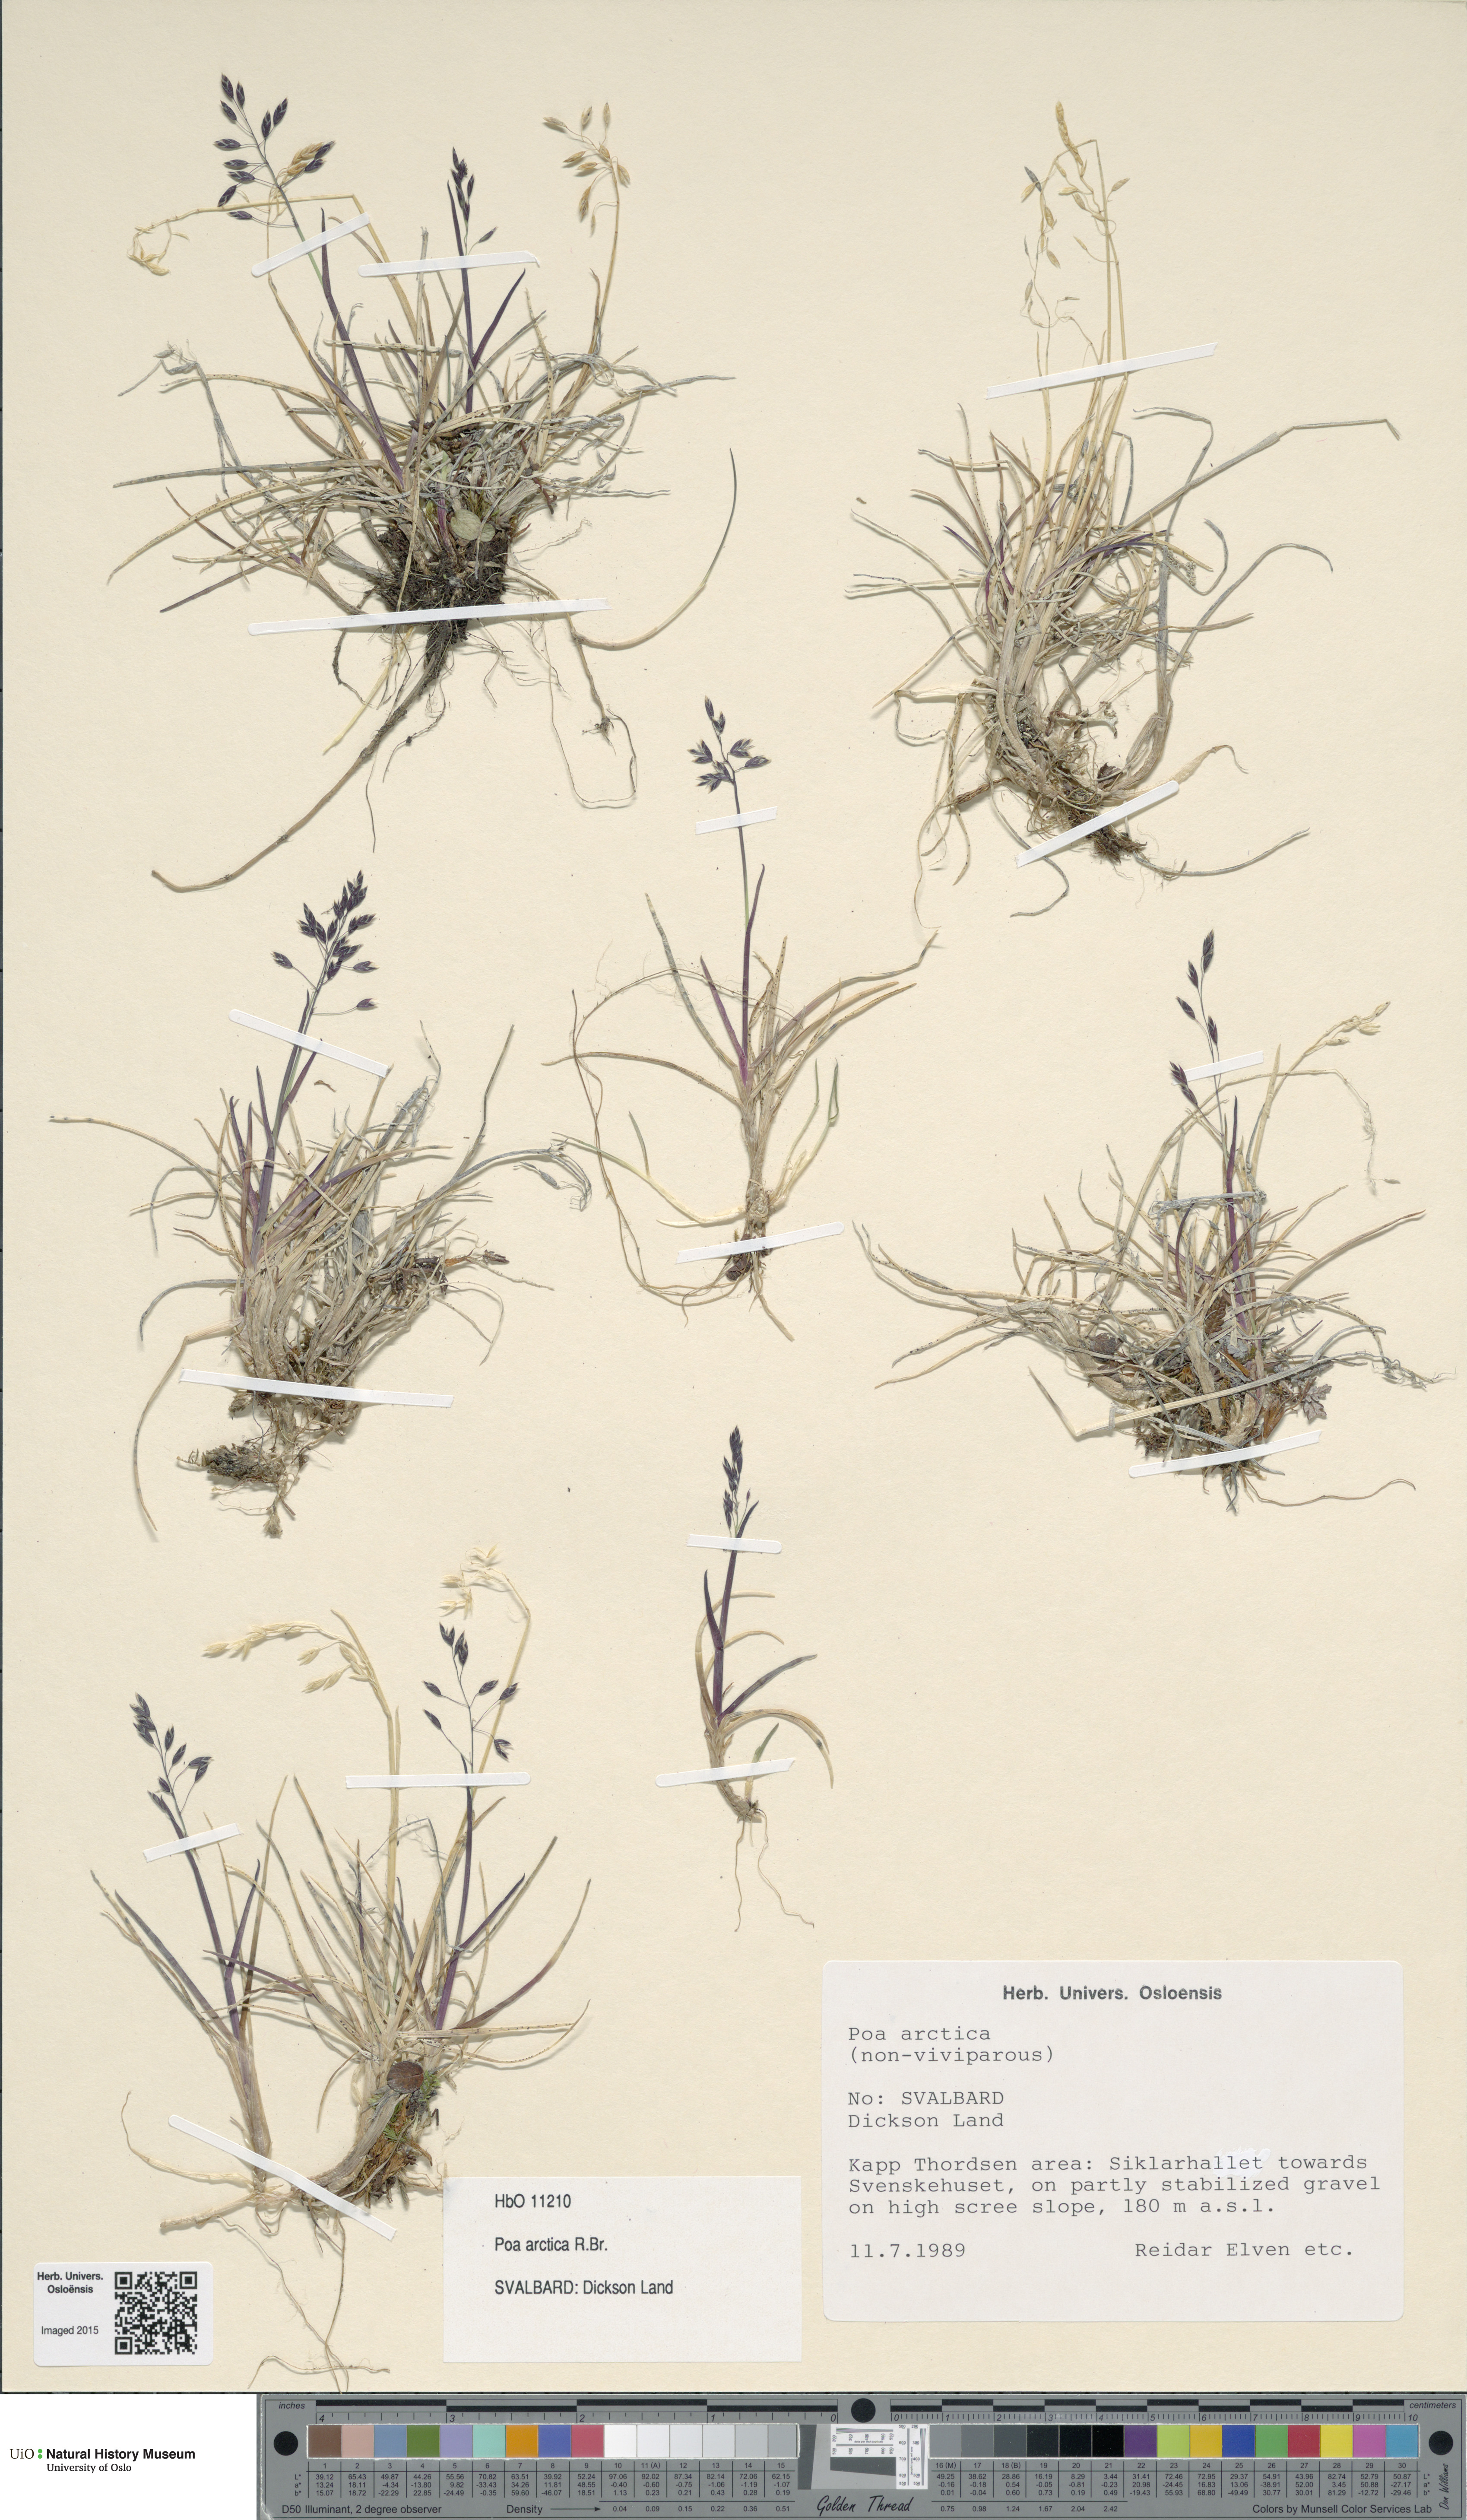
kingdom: Plantae
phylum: Tracheophyta
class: Liliopsida
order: Poales
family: Poaceae
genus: Poa
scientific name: Poa arctica
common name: Arctic bluegrass
